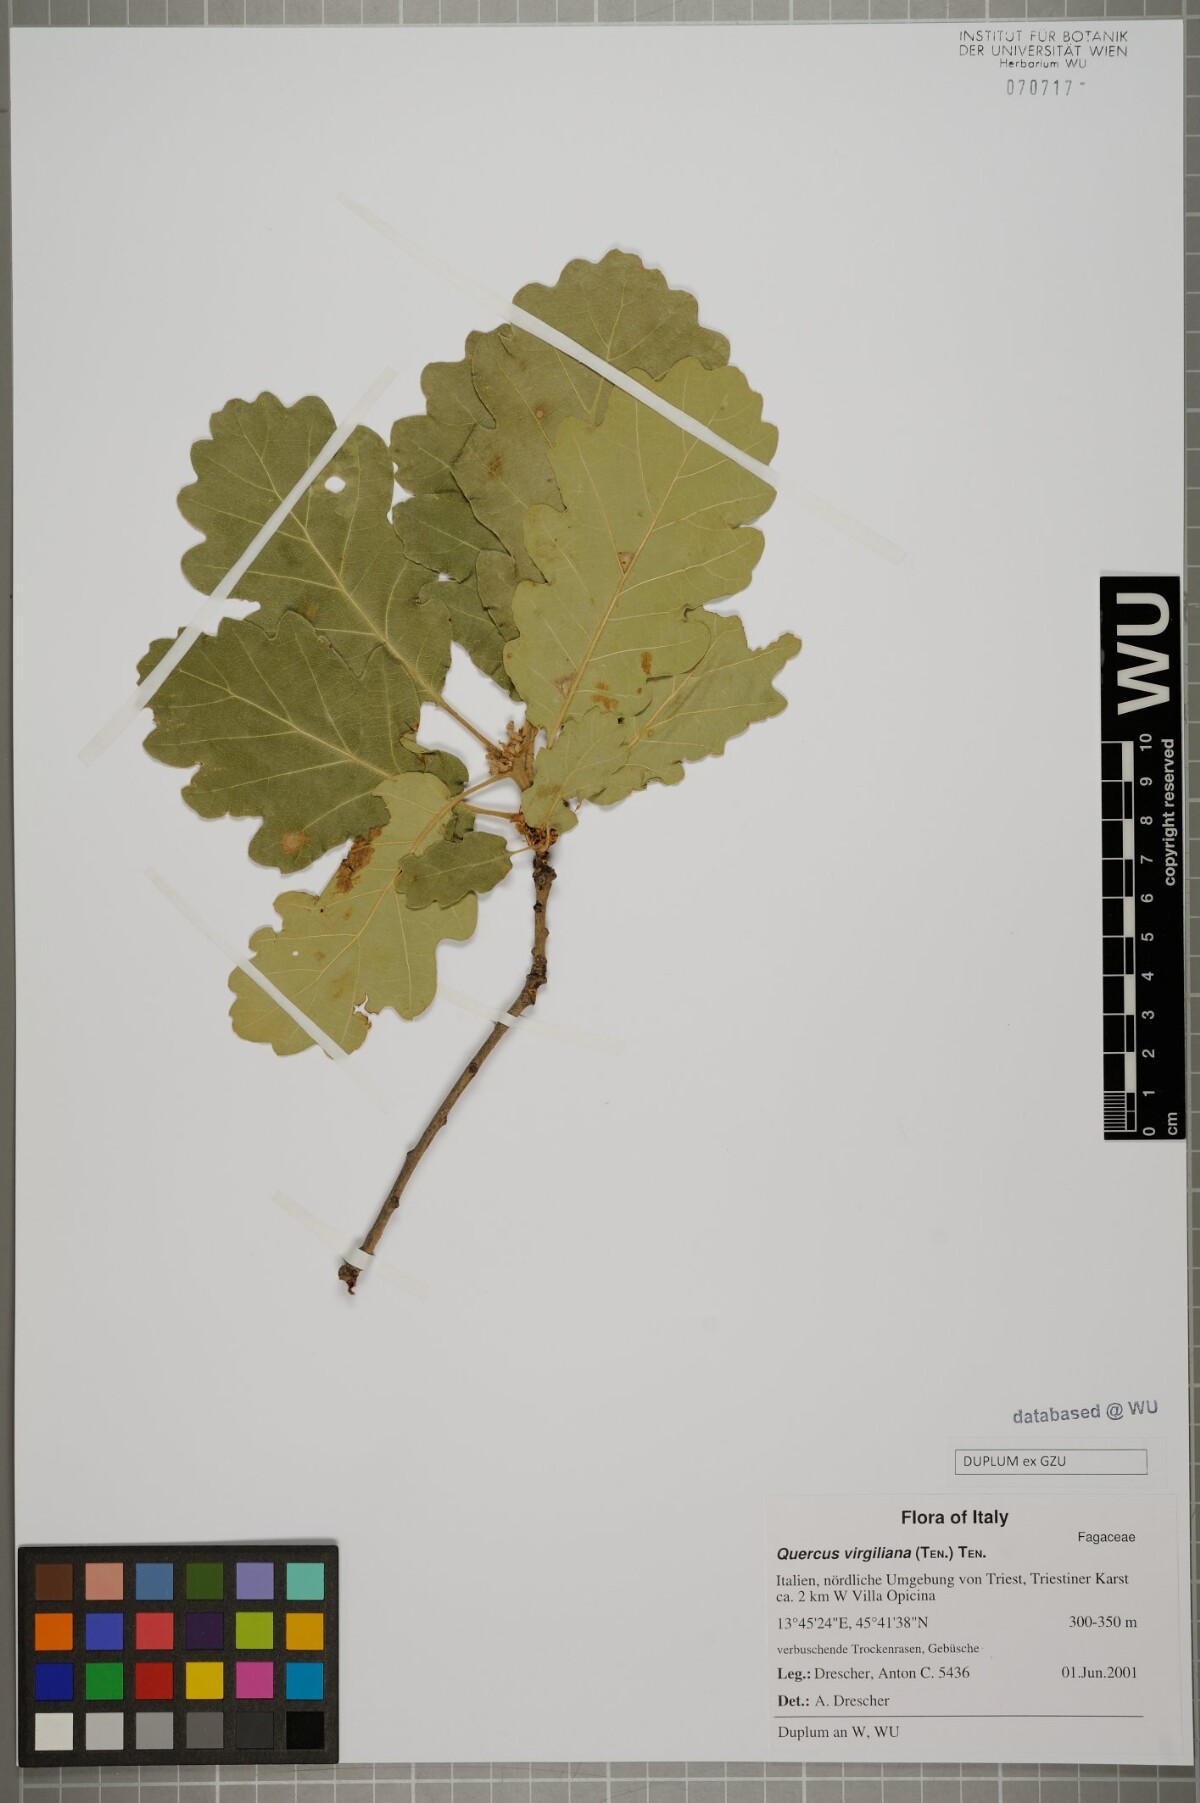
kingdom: Plantae
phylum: Tracheophyta
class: Magnoliopsida
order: Fagales
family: Fagaceae
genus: Quercus
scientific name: Quercus pubescens
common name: Downy oak
